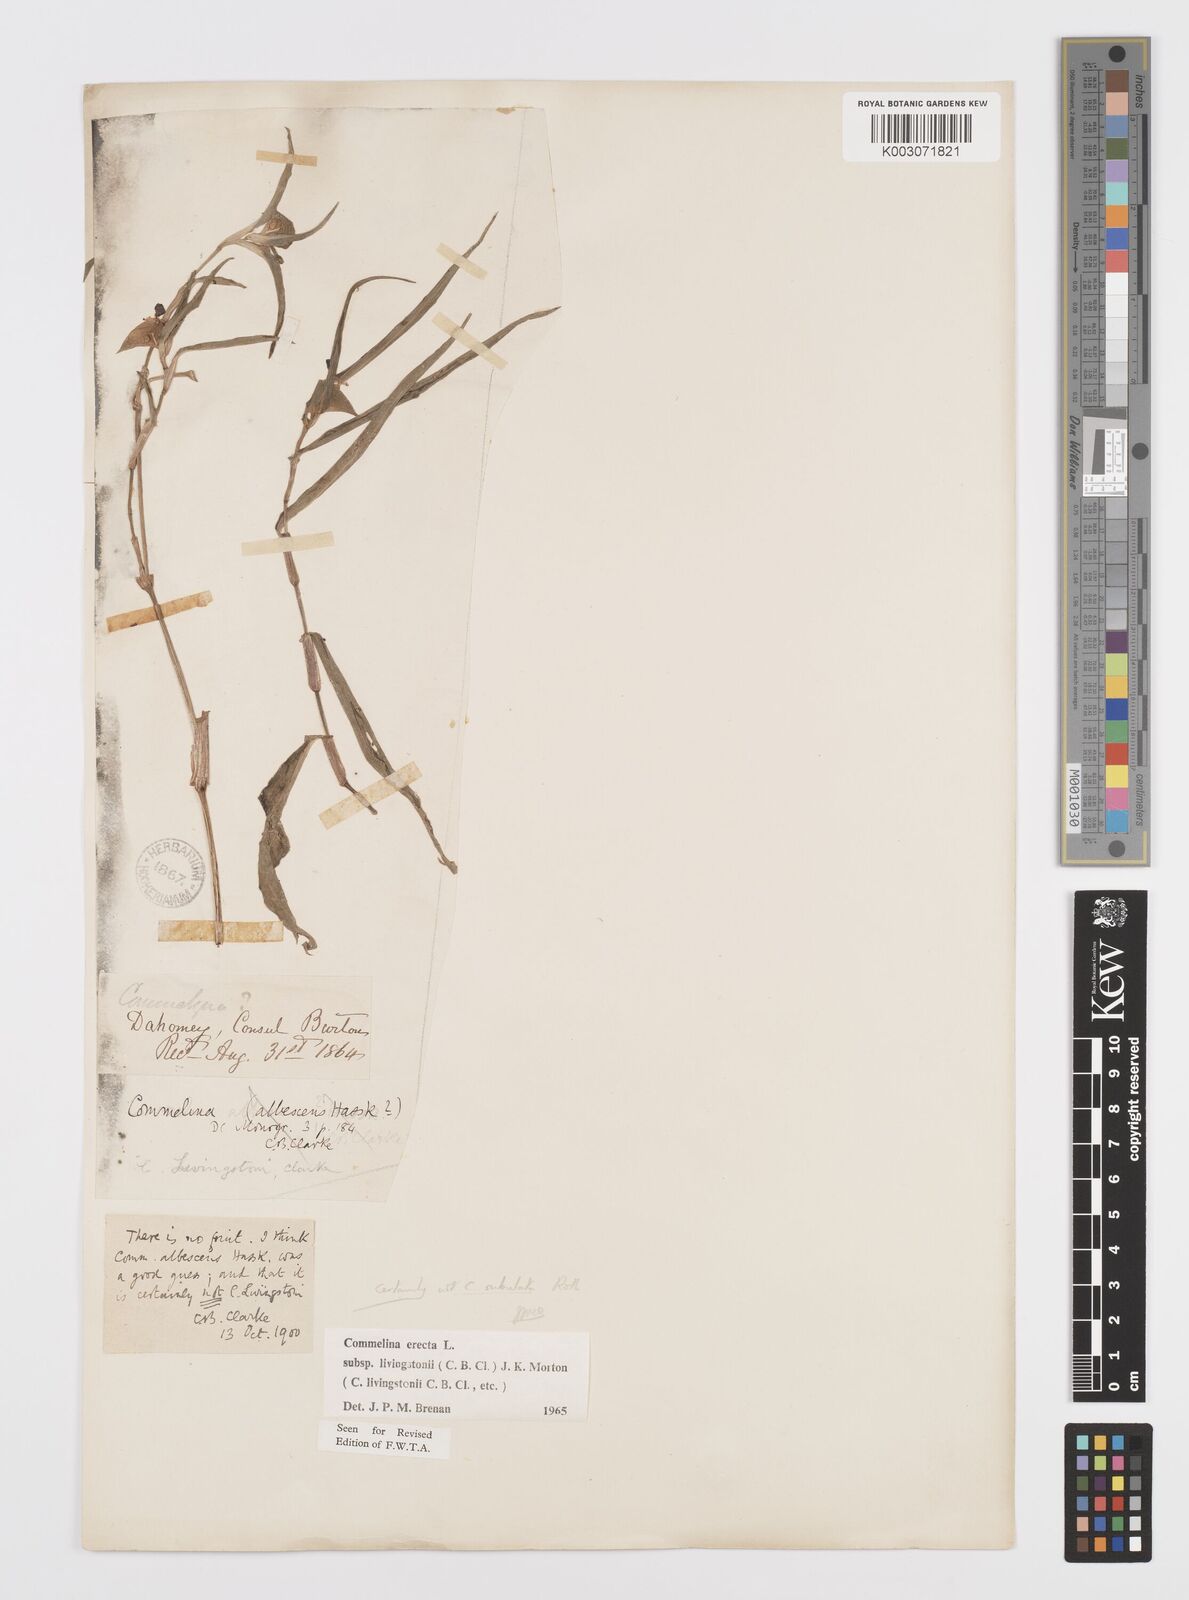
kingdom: Plantae
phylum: Tracheophyta
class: Liliopsida
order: Commelinales
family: Commelinaceae
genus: Commelina
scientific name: Commelina erecta
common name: Blousel blommetjie
